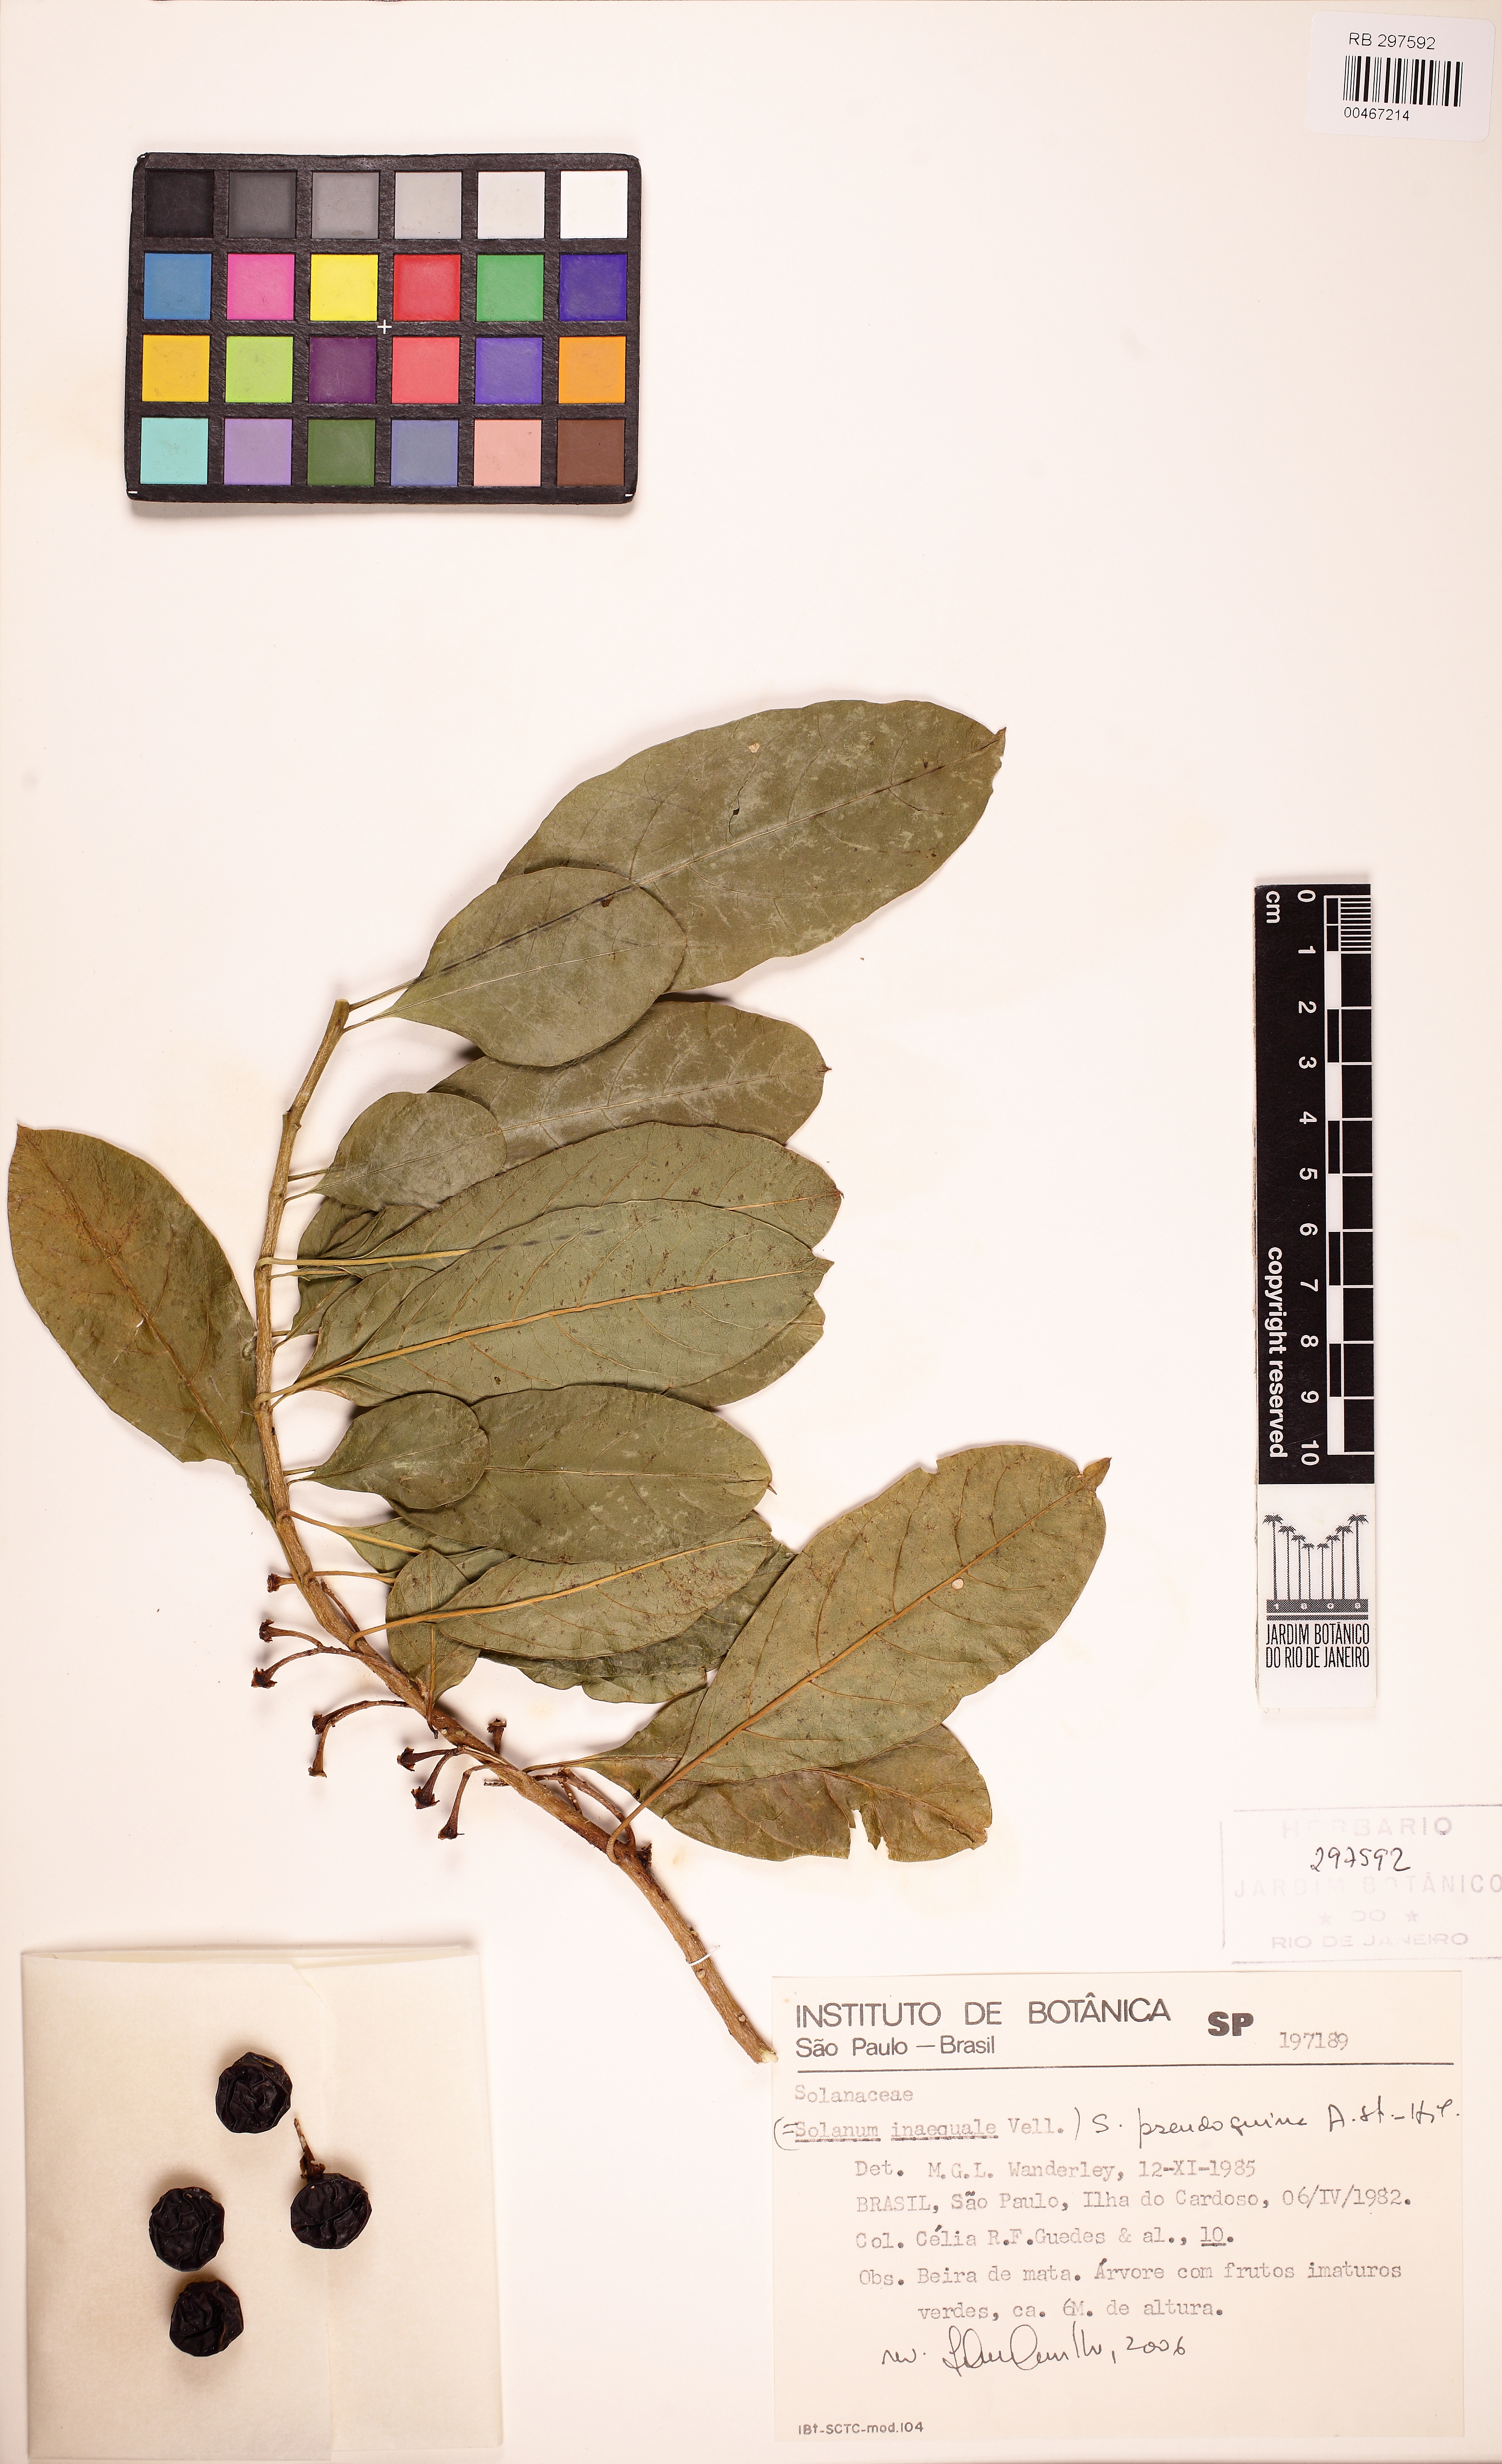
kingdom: Plantae
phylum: Tracheophyta
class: Magnoliopsida
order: Solanales
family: Solanaceae
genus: Solanum
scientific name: Solanum pseudoquina
